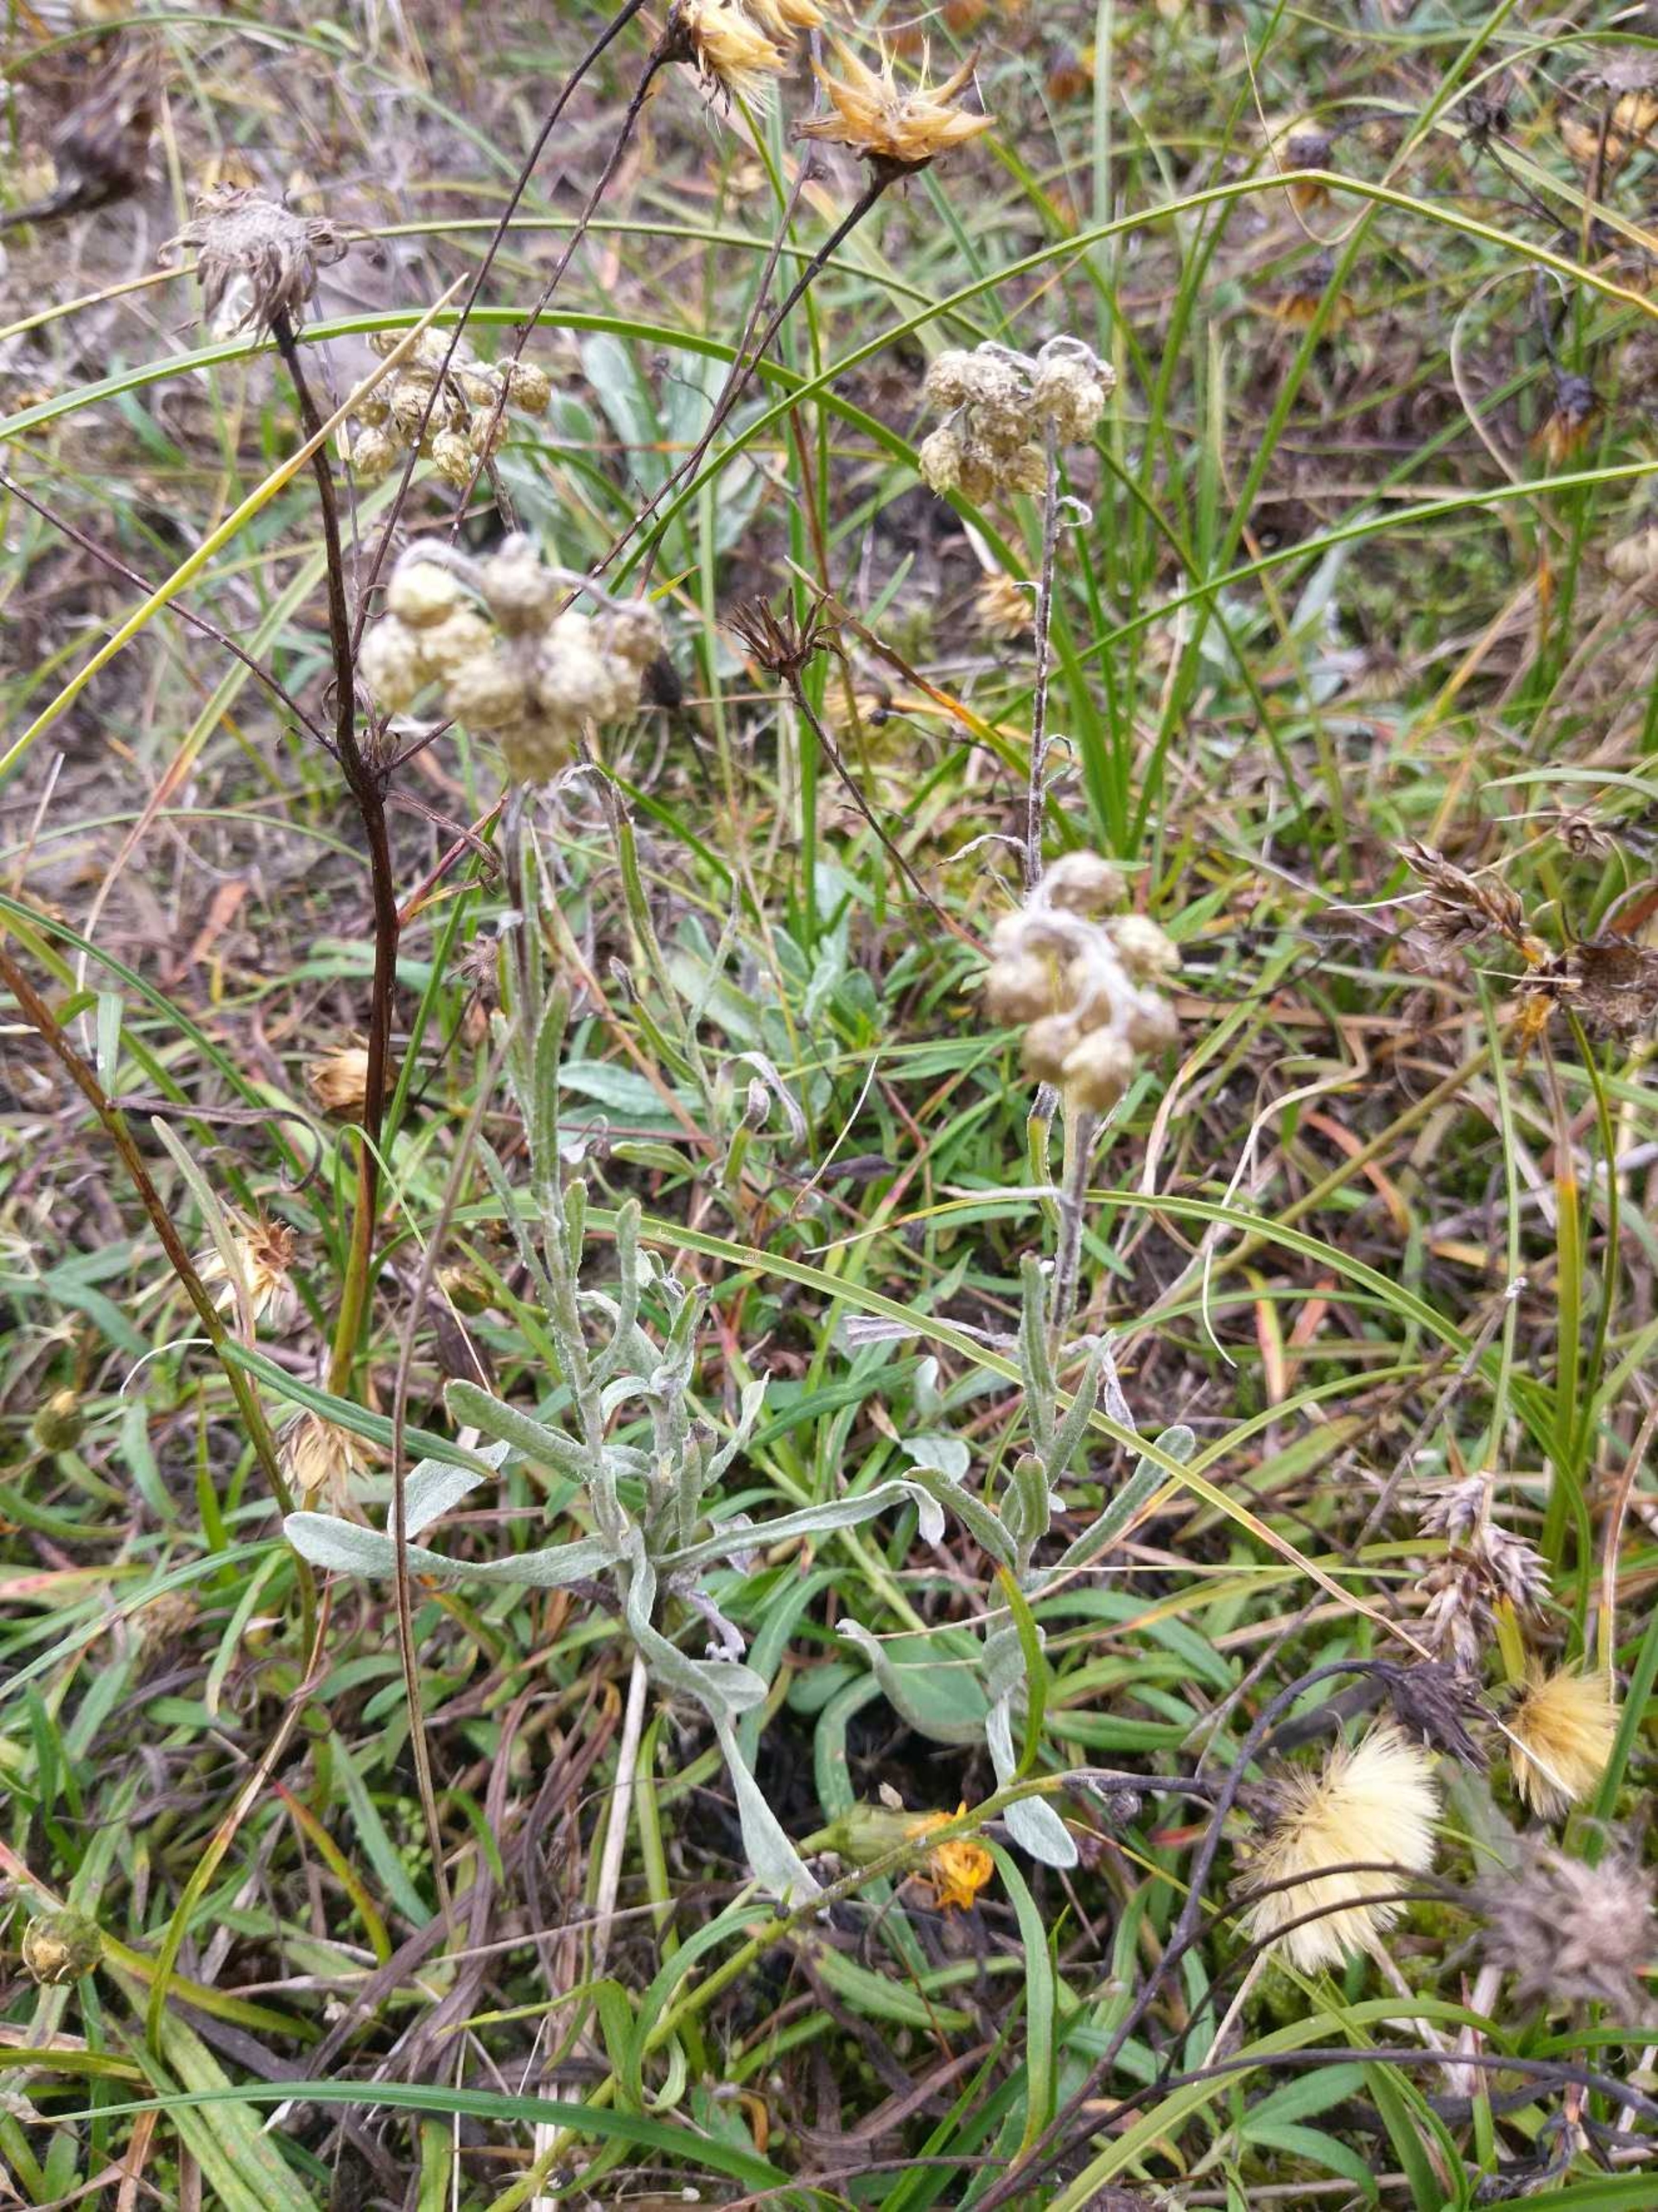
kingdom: Plantae
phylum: Tracheophyta
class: Magnoliopsida
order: Asterales
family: Asteraceae
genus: Helichrysum
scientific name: Helichrysum arenarium
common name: Gul evighedsblomst
